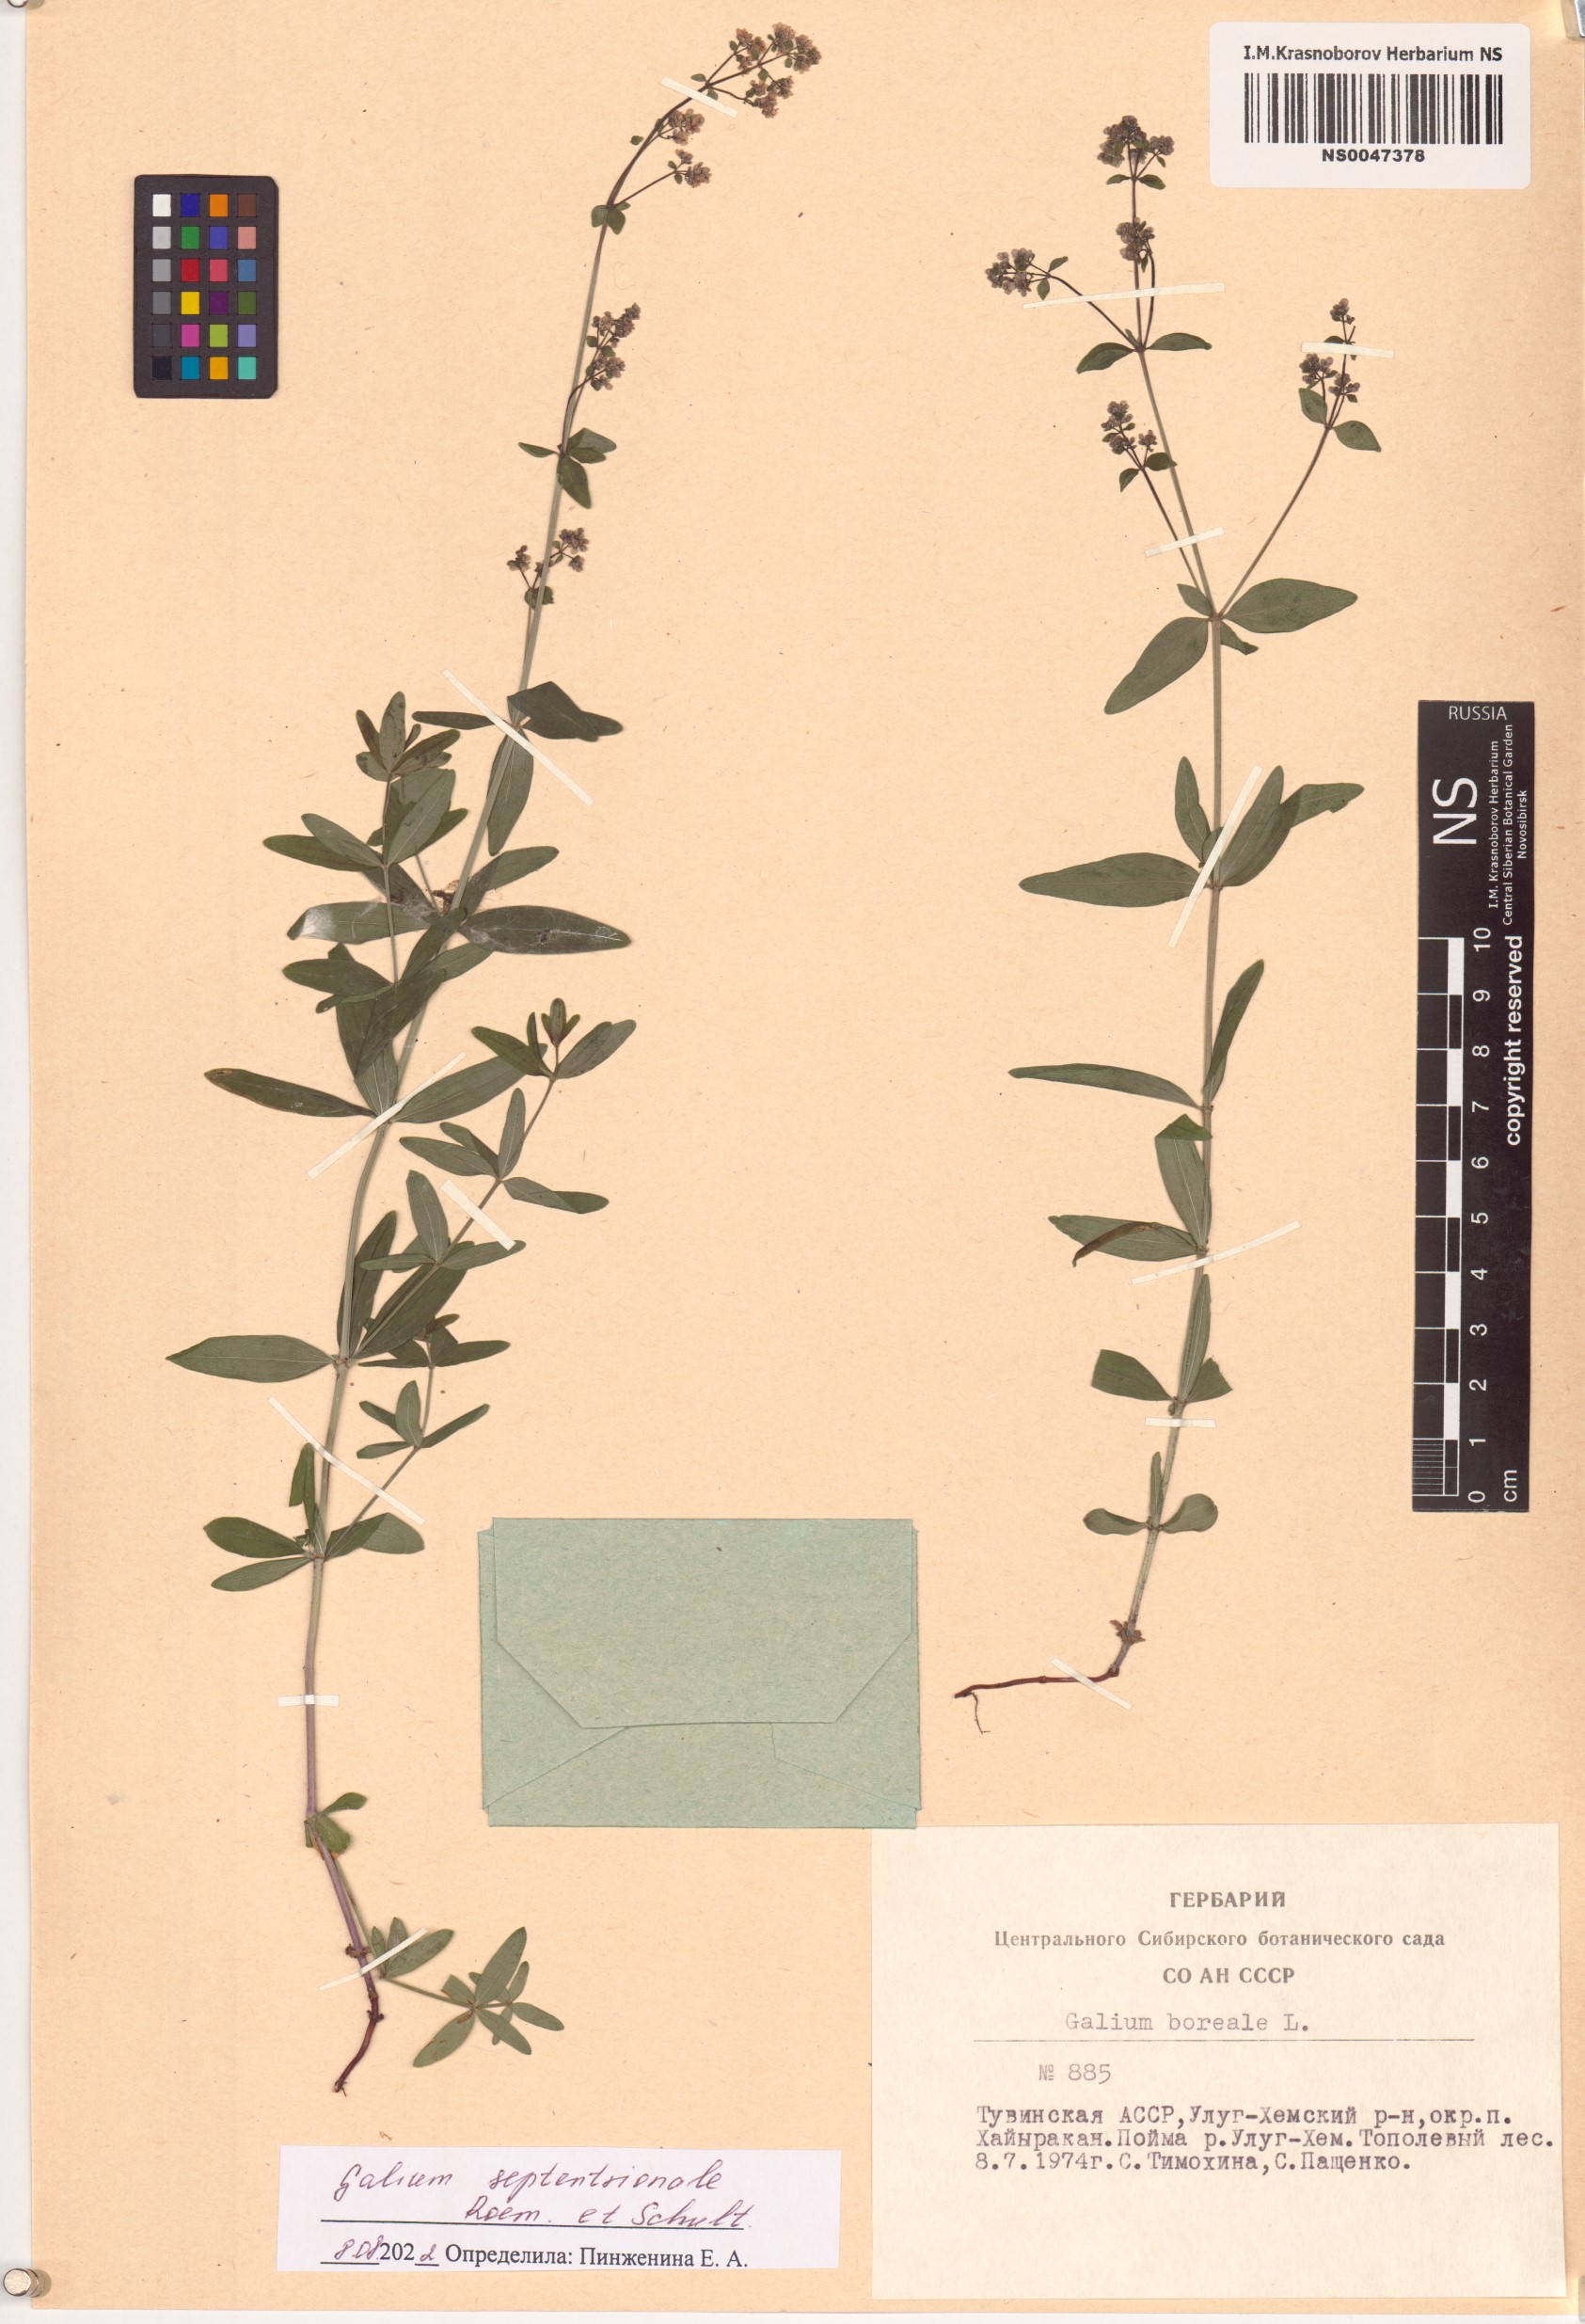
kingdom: Plantae
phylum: Tracheophyta
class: Magnoliopsida
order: Gentianales
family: Rubiaceae
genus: Galium
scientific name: Galium boreale
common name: Northern bedstraw
